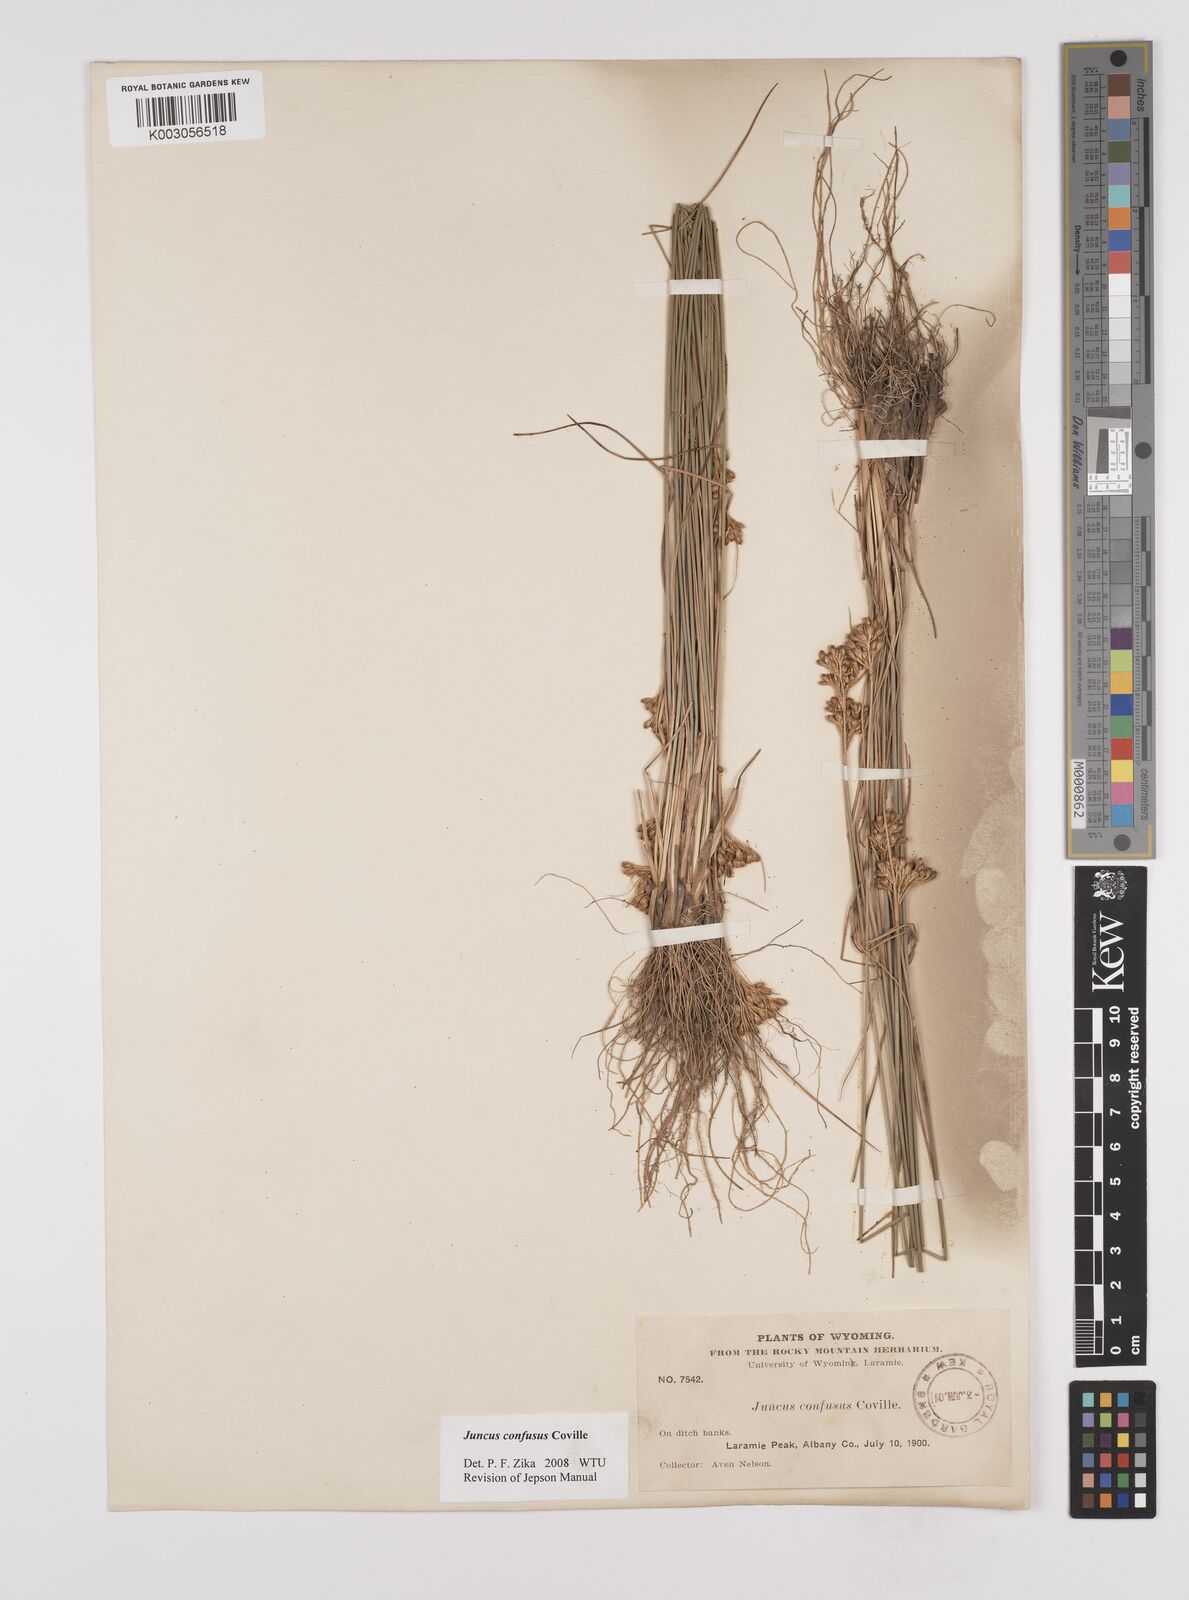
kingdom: Plantae
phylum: Tracheophyta
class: Liliopsida
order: Poales
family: Juncaceae
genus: Juncus
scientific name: Juncus confusus
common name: Colorado rush
